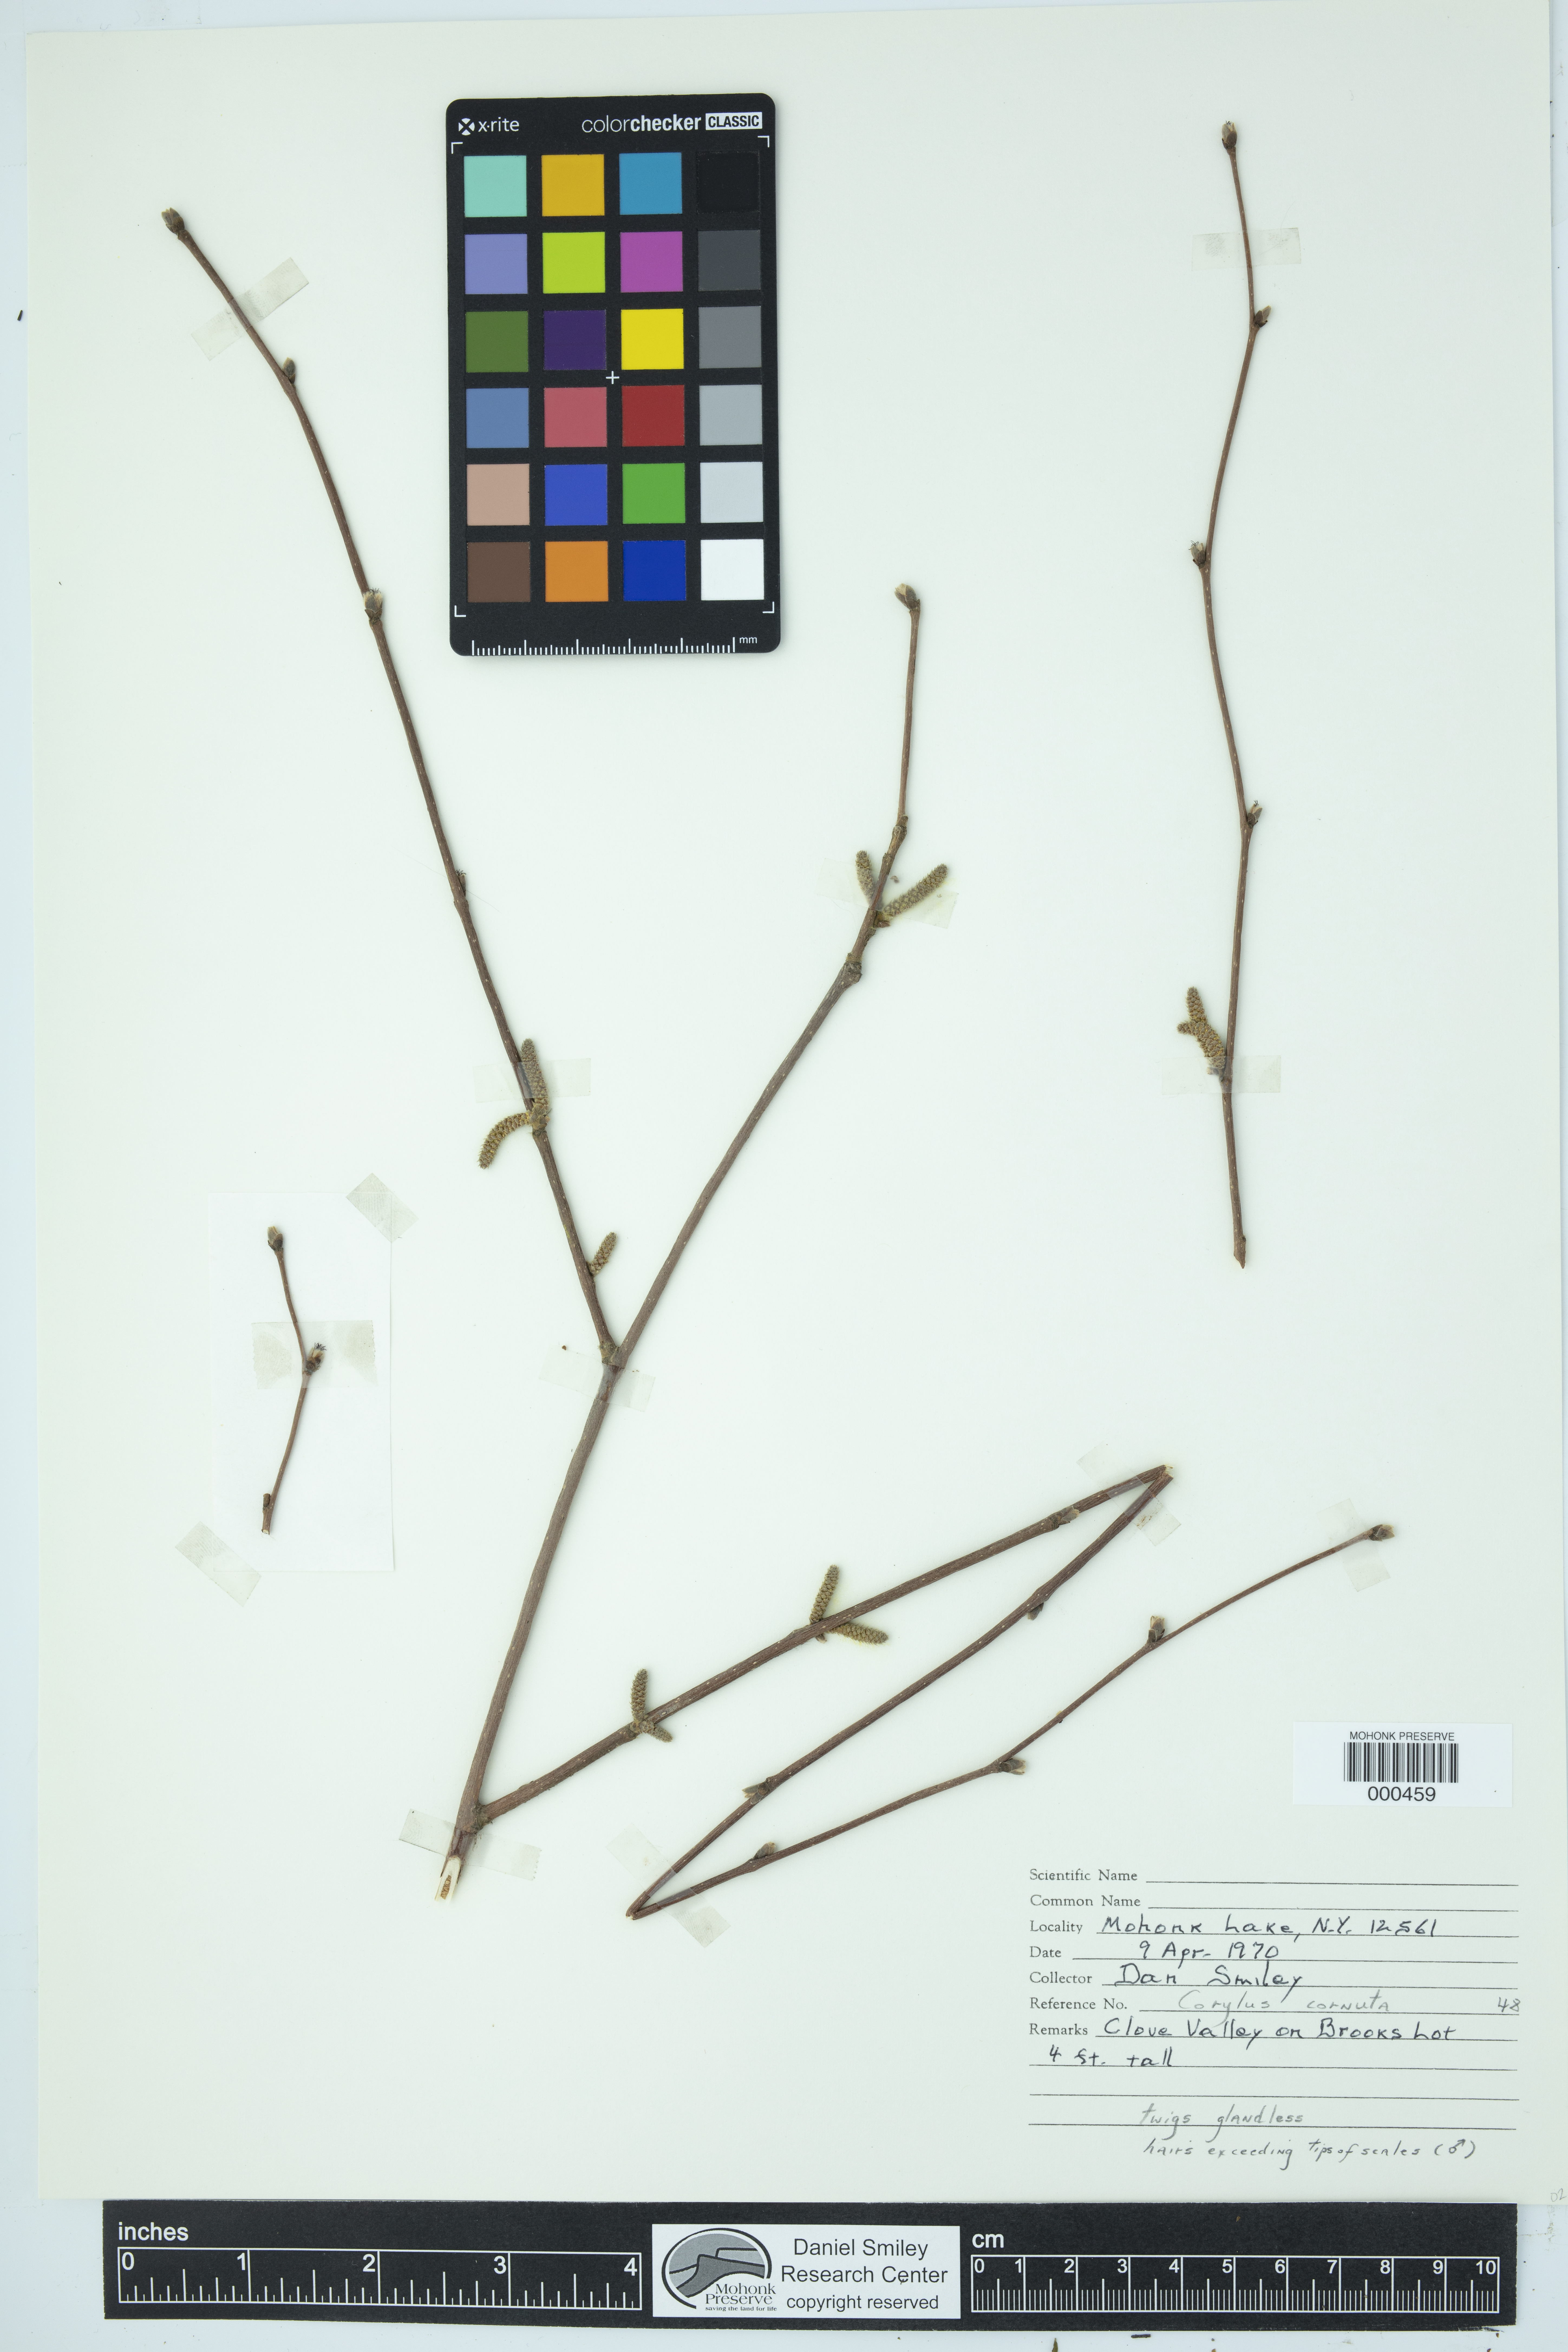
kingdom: Plantae
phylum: Tracheophyta
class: Magnoliopsida
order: Fagales
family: Betulaceae
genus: Corylus
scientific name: Corylus cornuta
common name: Beaked hazel
